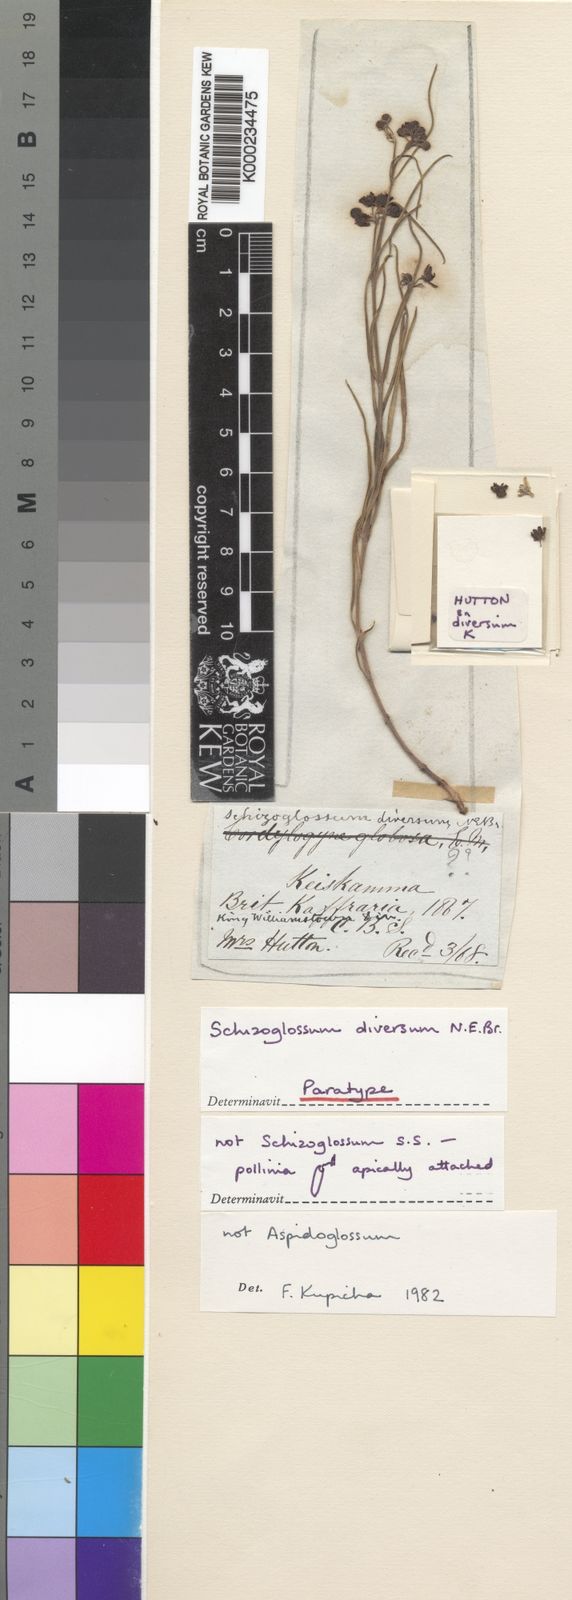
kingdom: Plantae
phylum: Tracheophyta
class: Magnoliopsida
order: Gentianales
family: Apocynaceae
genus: Schizoglossum
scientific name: Schizoglossum bidens
